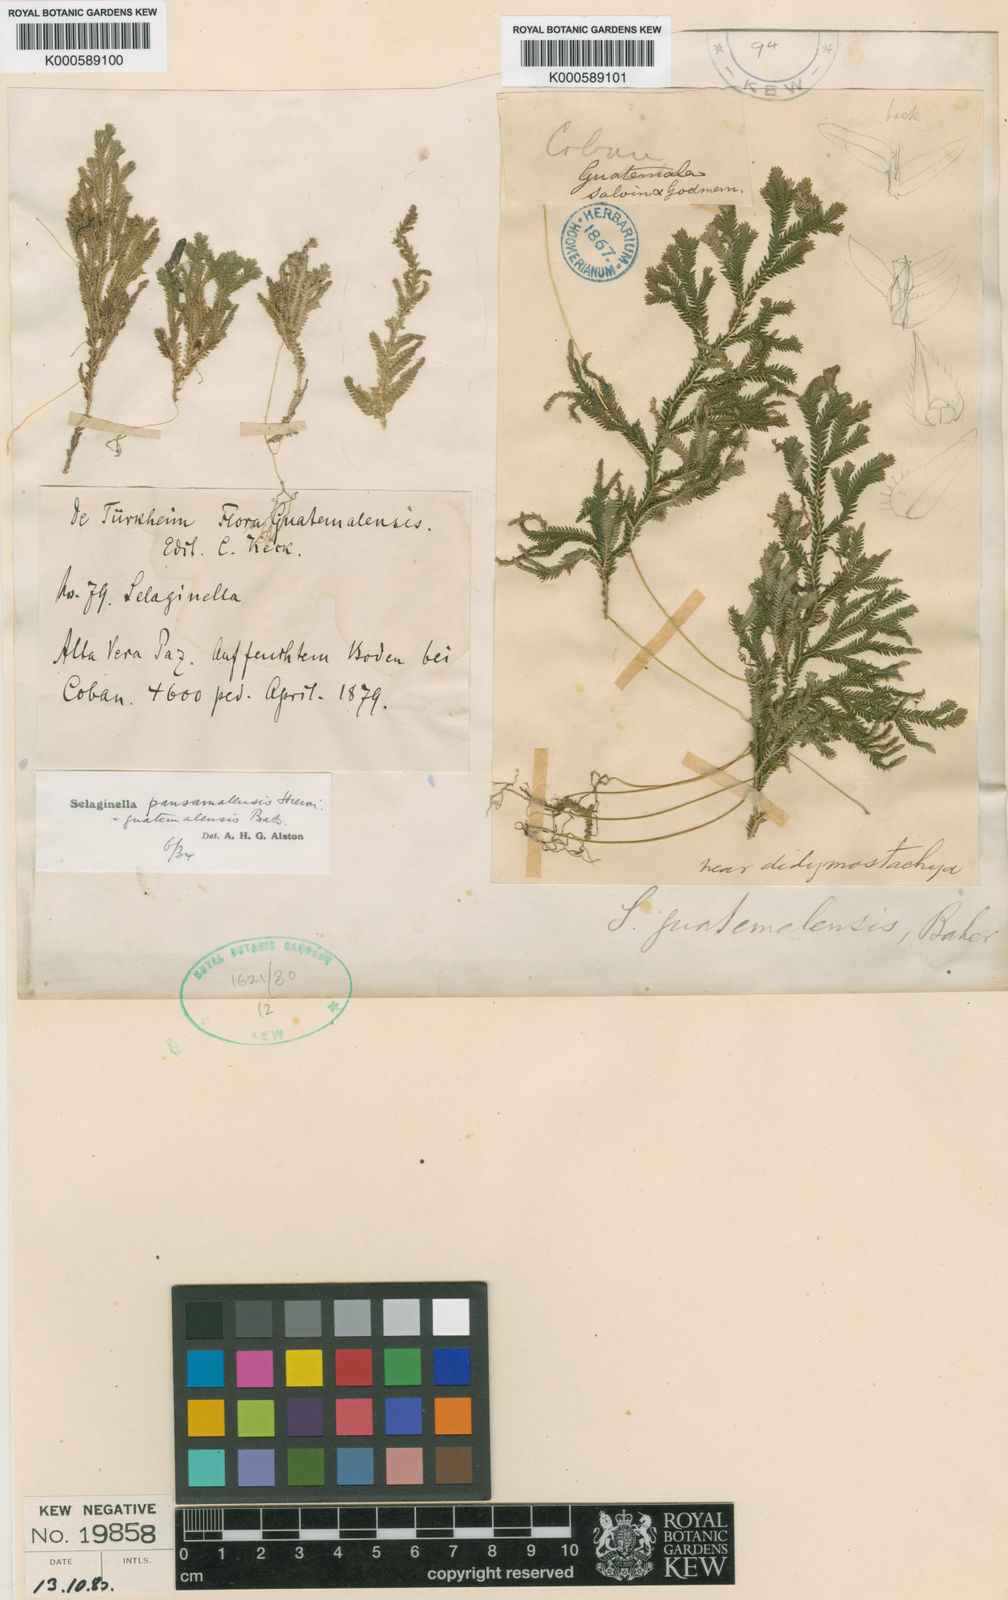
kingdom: Plantae
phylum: Tracheophyta
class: Lycopodiopsida
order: Selaginellales
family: Selaginellaceae
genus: Selaginella
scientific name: Selaginella guatemalensis
